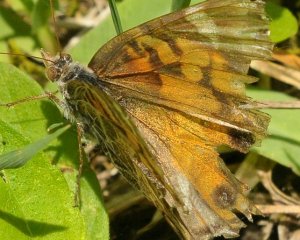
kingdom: Animalia
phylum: Arthropoda
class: Insecta
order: Lepidoptera
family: Nymphalidae
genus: Vanessa
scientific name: Vanessa virginiensis
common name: American Lady
